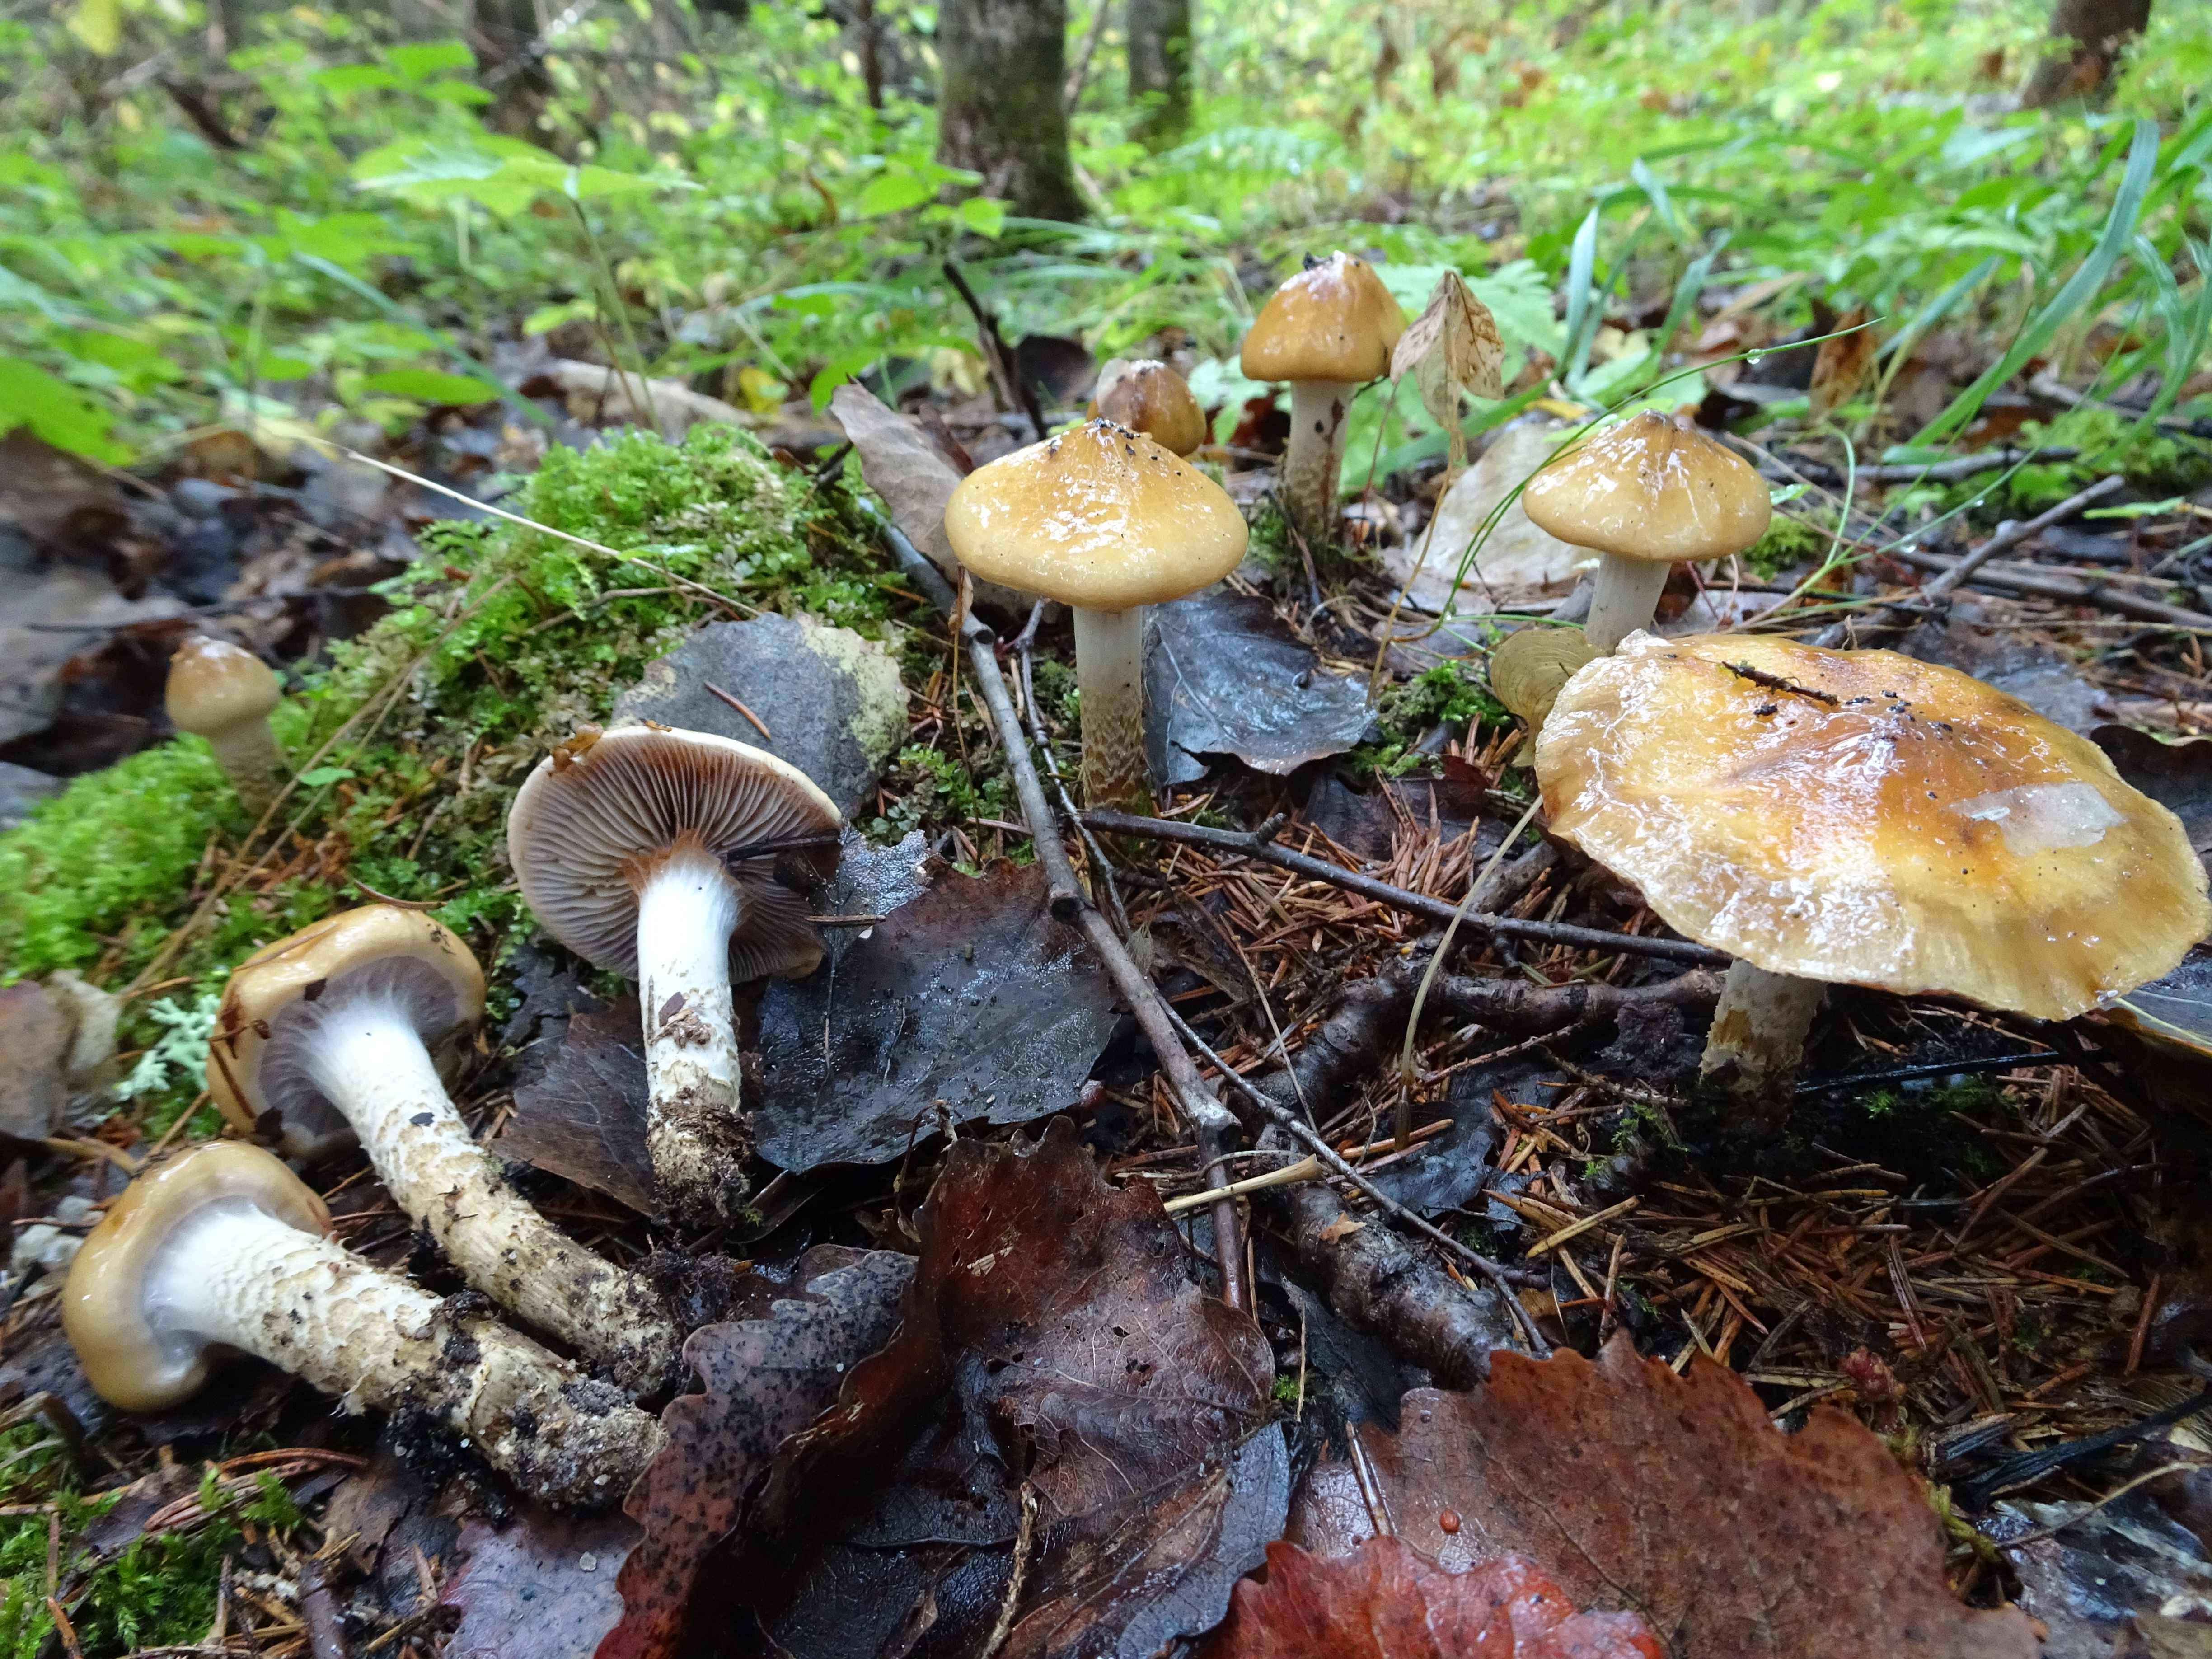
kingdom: Fungi
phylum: Basidiomycota
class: Agaricomycetes
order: Agaricales
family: Cortinariaceae
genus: Cortinarius
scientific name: Cortinarius trivialis
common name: Girdled webcap
